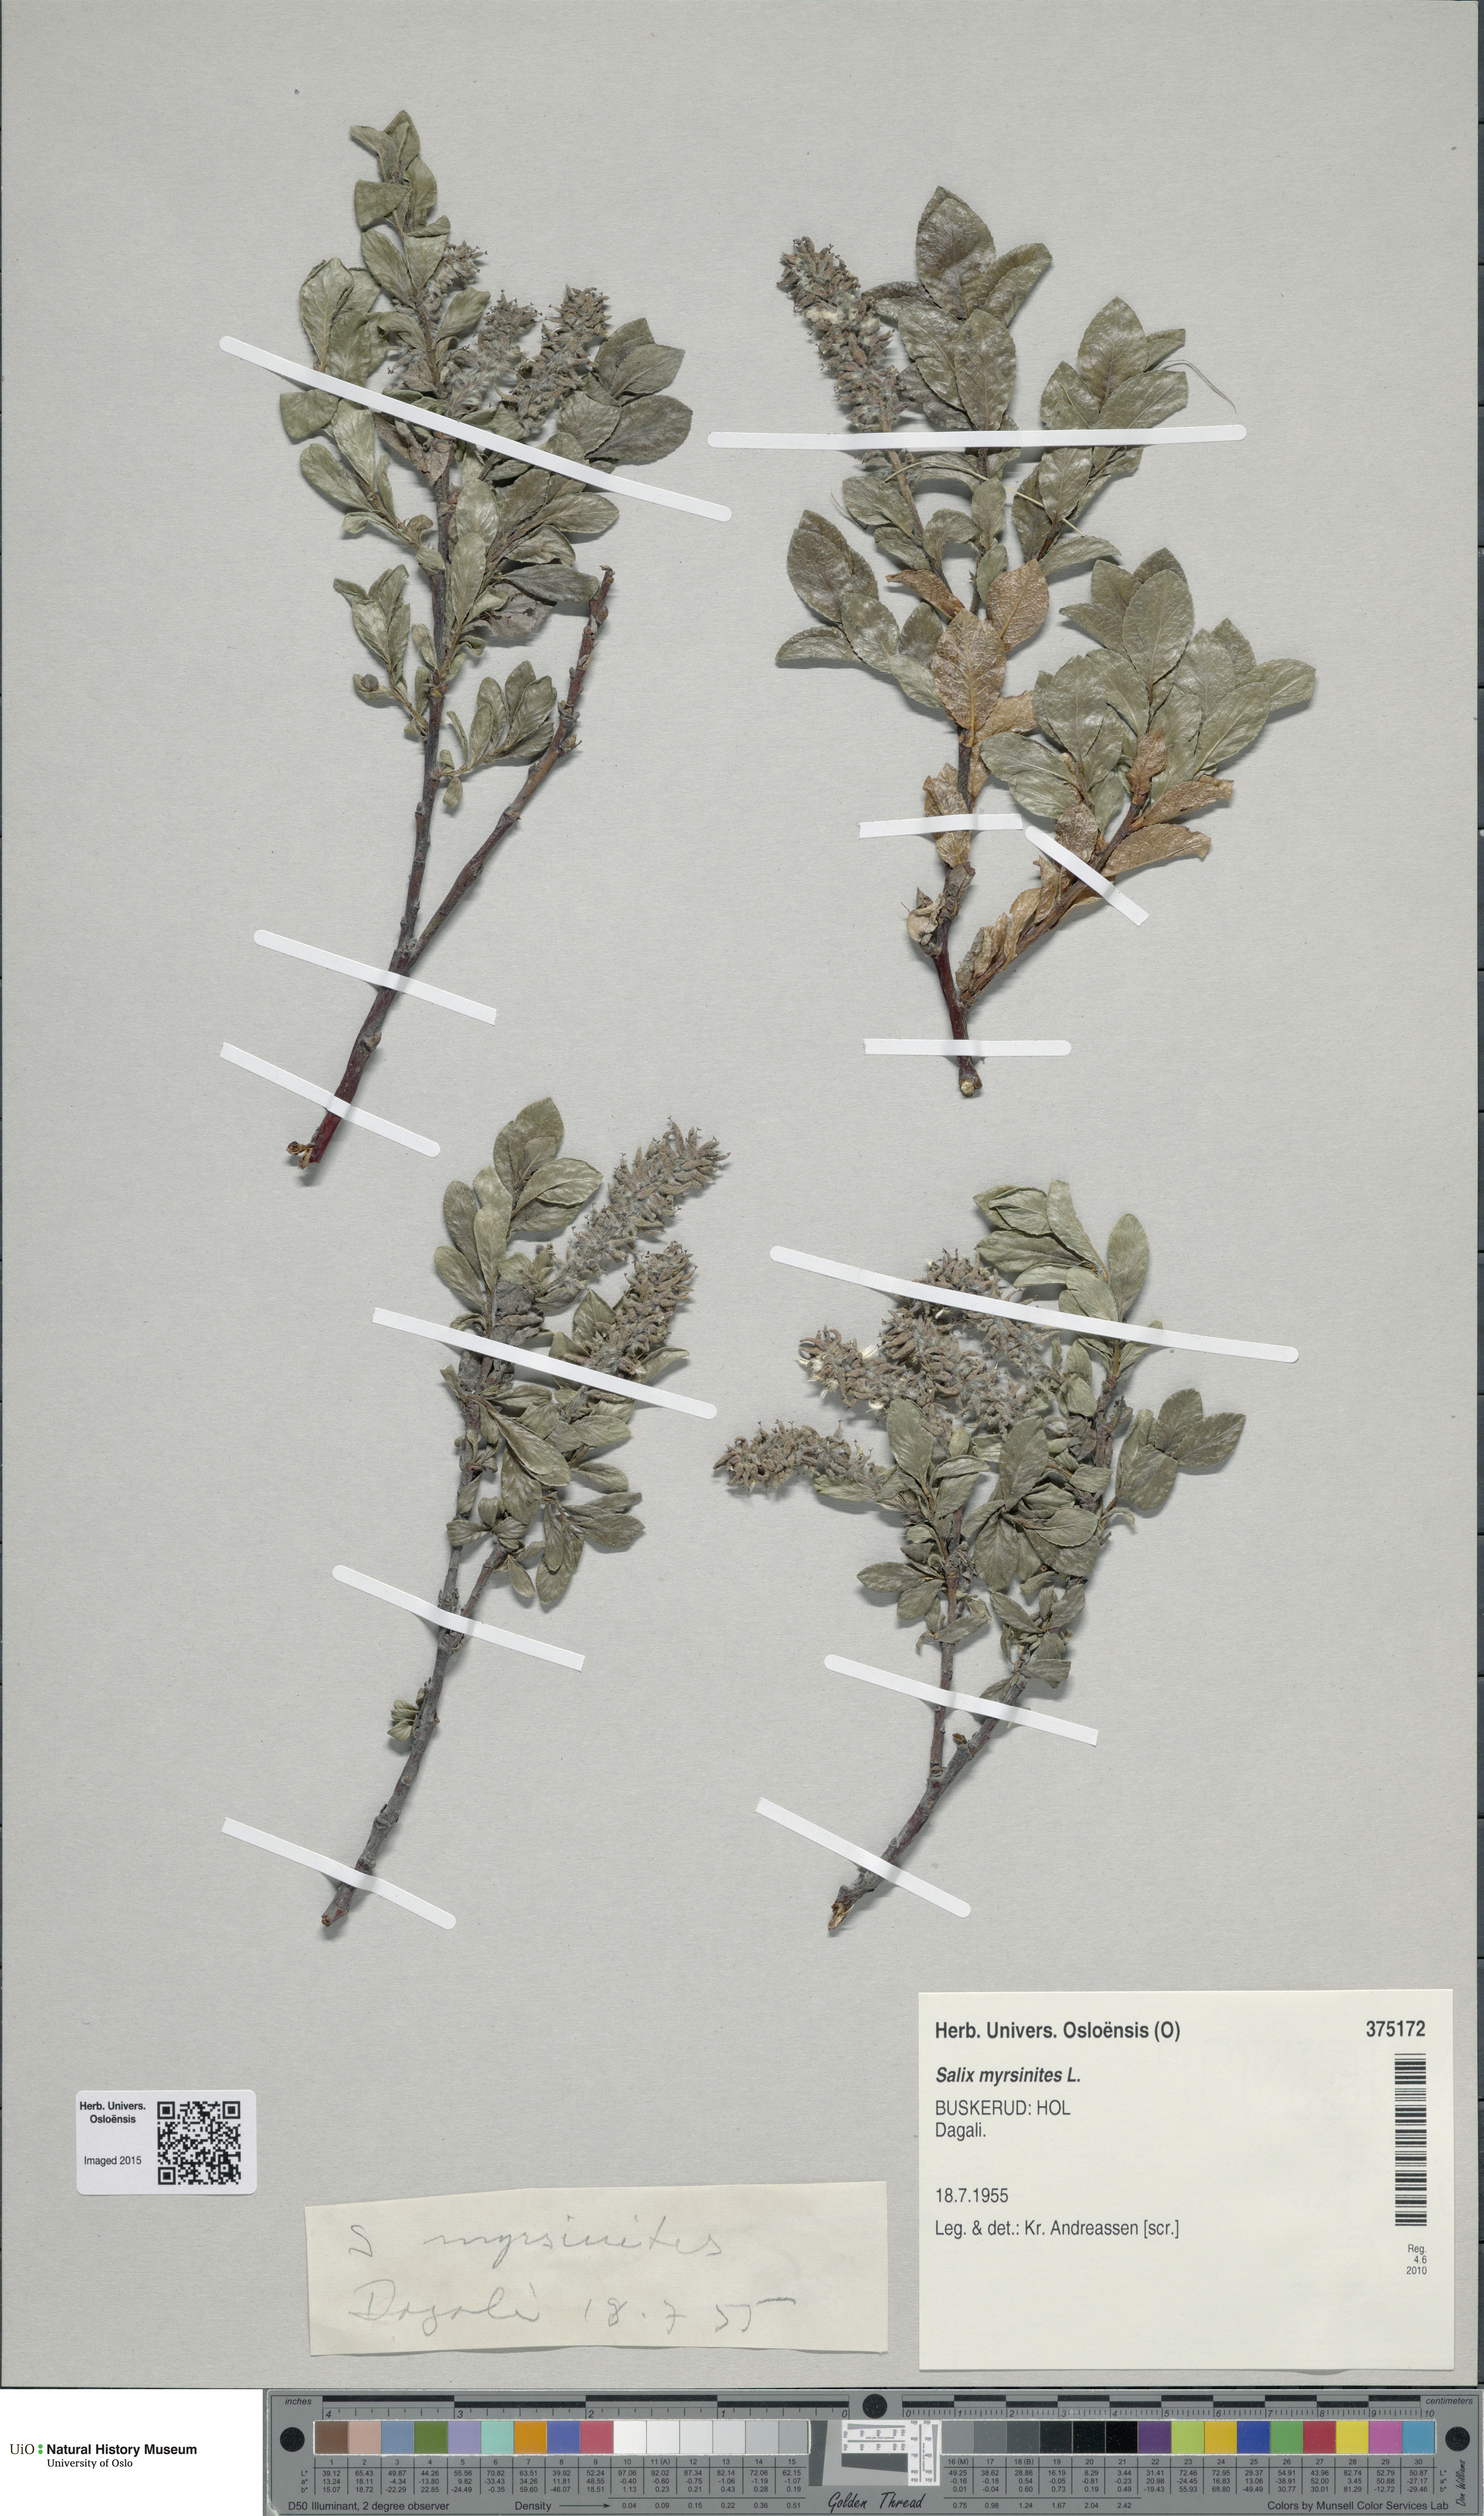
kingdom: Plantae
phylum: Tracheophyta
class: Magnoliopsida
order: Malpighiales
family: Salicaceae
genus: Salix
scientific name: Salix myrsinites
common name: Myrtle willow
